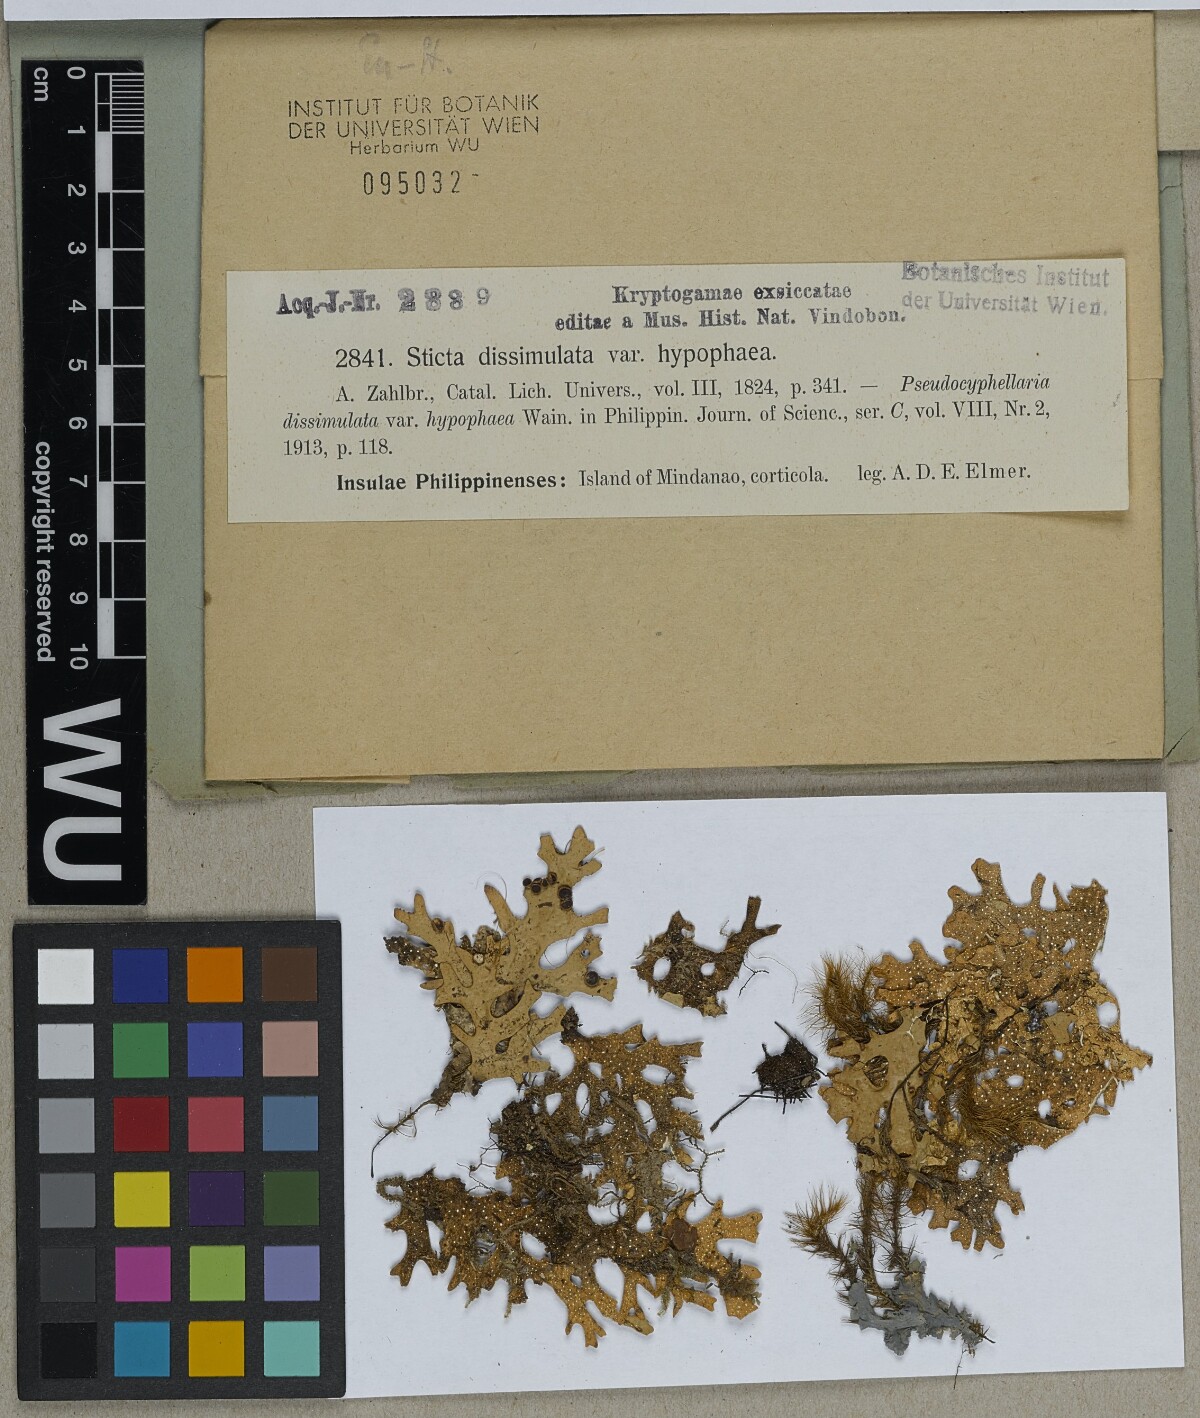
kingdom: Fungi
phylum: Ascomycota
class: Lecanoromycetes
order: Peltigerales
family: Lobariaceae
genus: Pseudocyphellaria
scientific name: Pseudocyphellaria multifida
